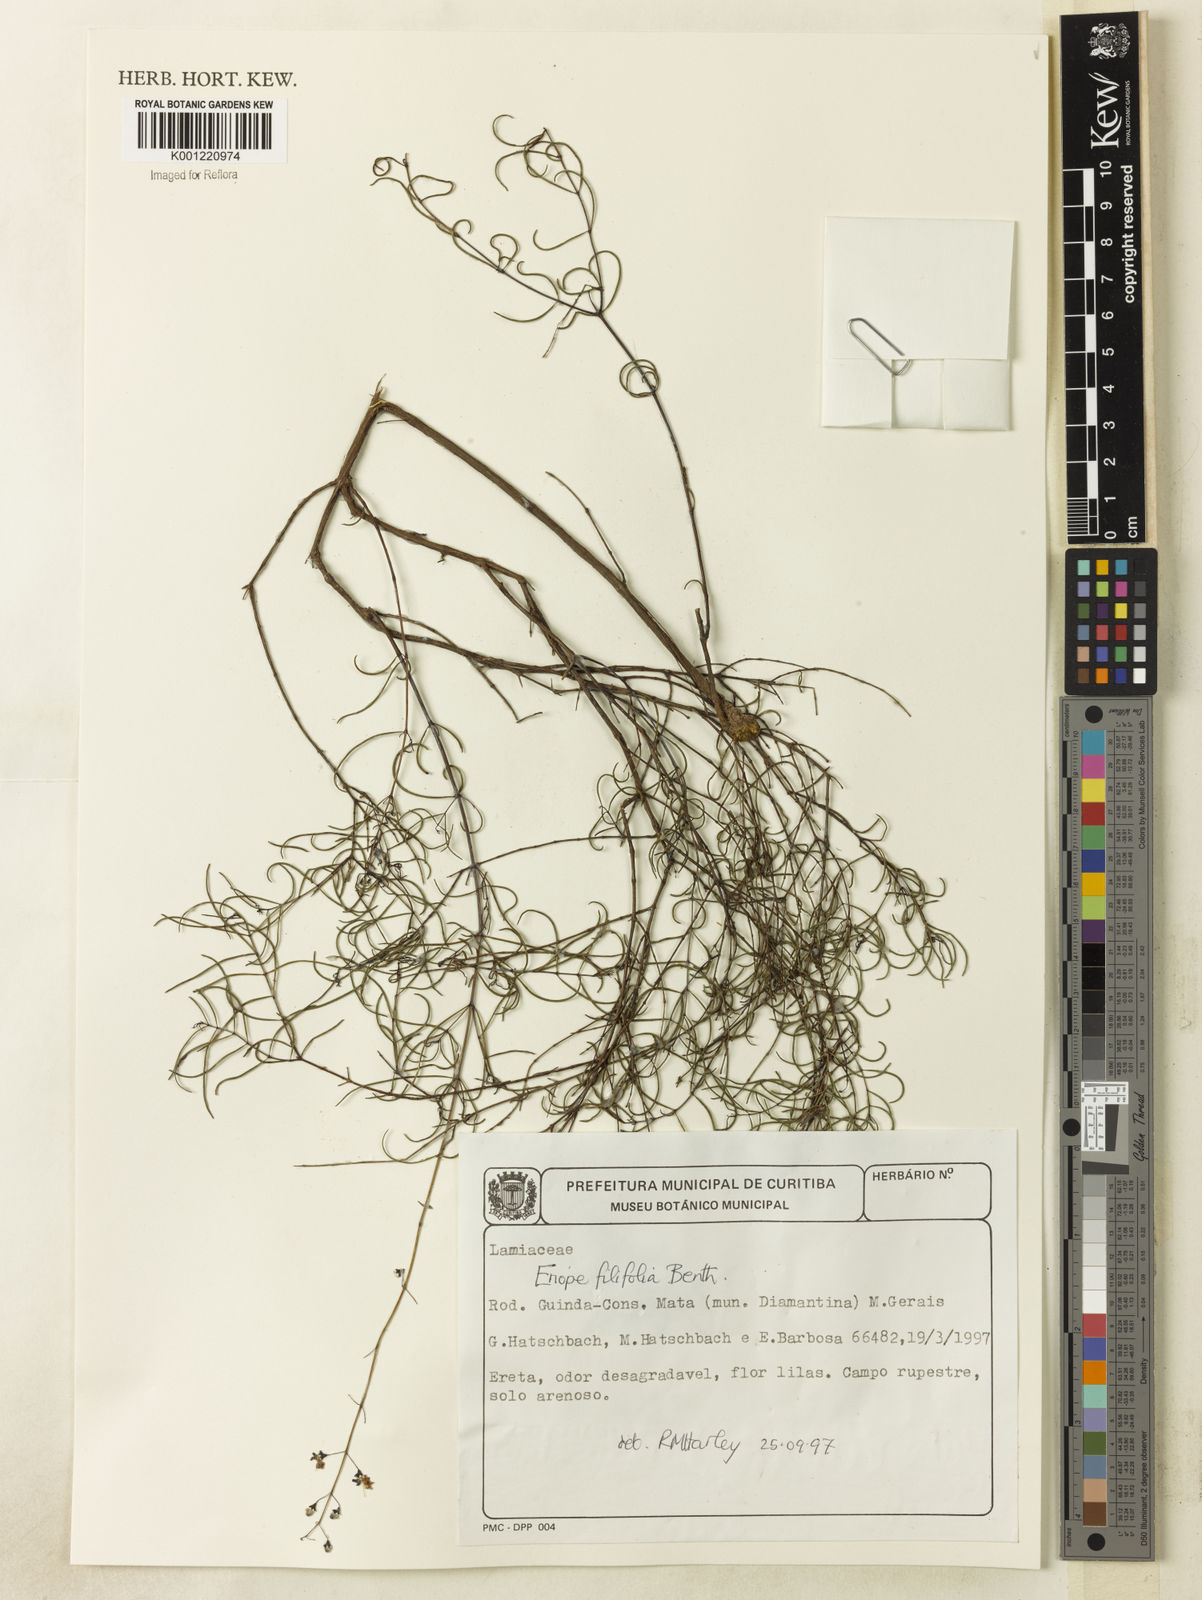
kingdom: Plantae
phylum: Tracheophyta
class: Magnoliopsida
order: Lamiales
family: Lamiaceae
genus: Eriope
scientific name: Eriope filifolia
